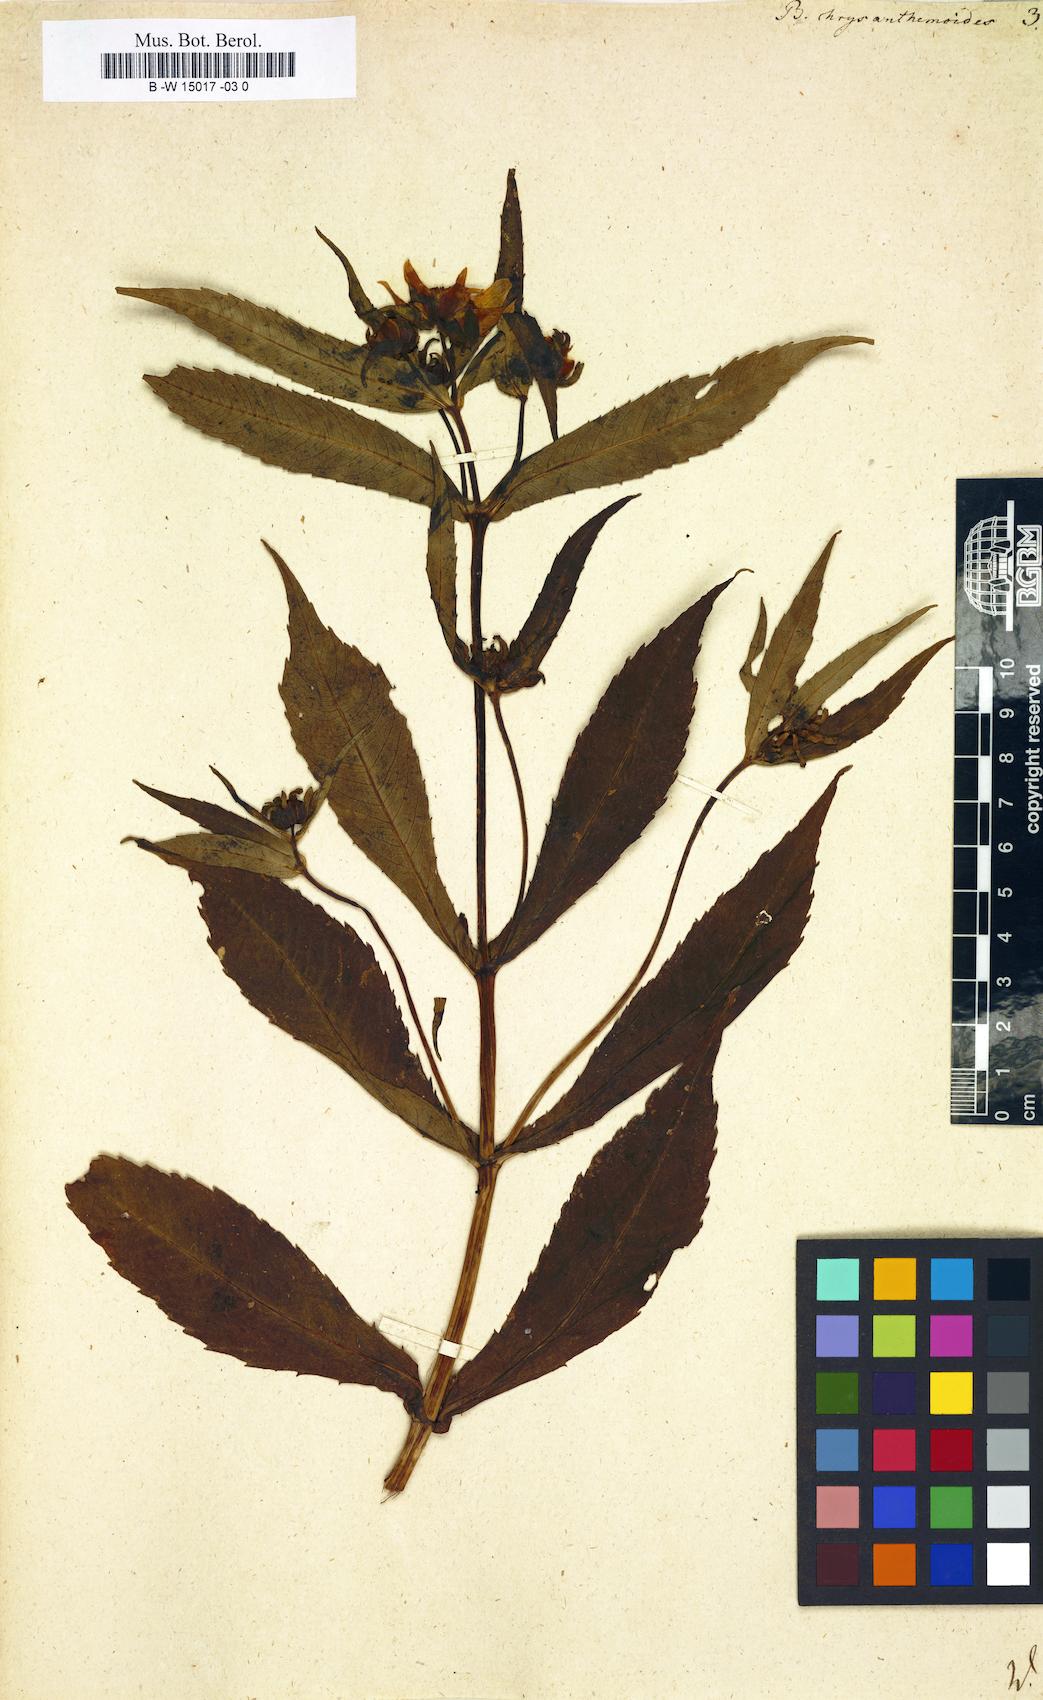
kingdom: Plantae
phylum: Tracheophyta
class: Magnoliopsida
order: Asterales
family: Asteraceae
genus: Bidens
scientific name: Bidens laevis
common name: Larger bur-marigold
